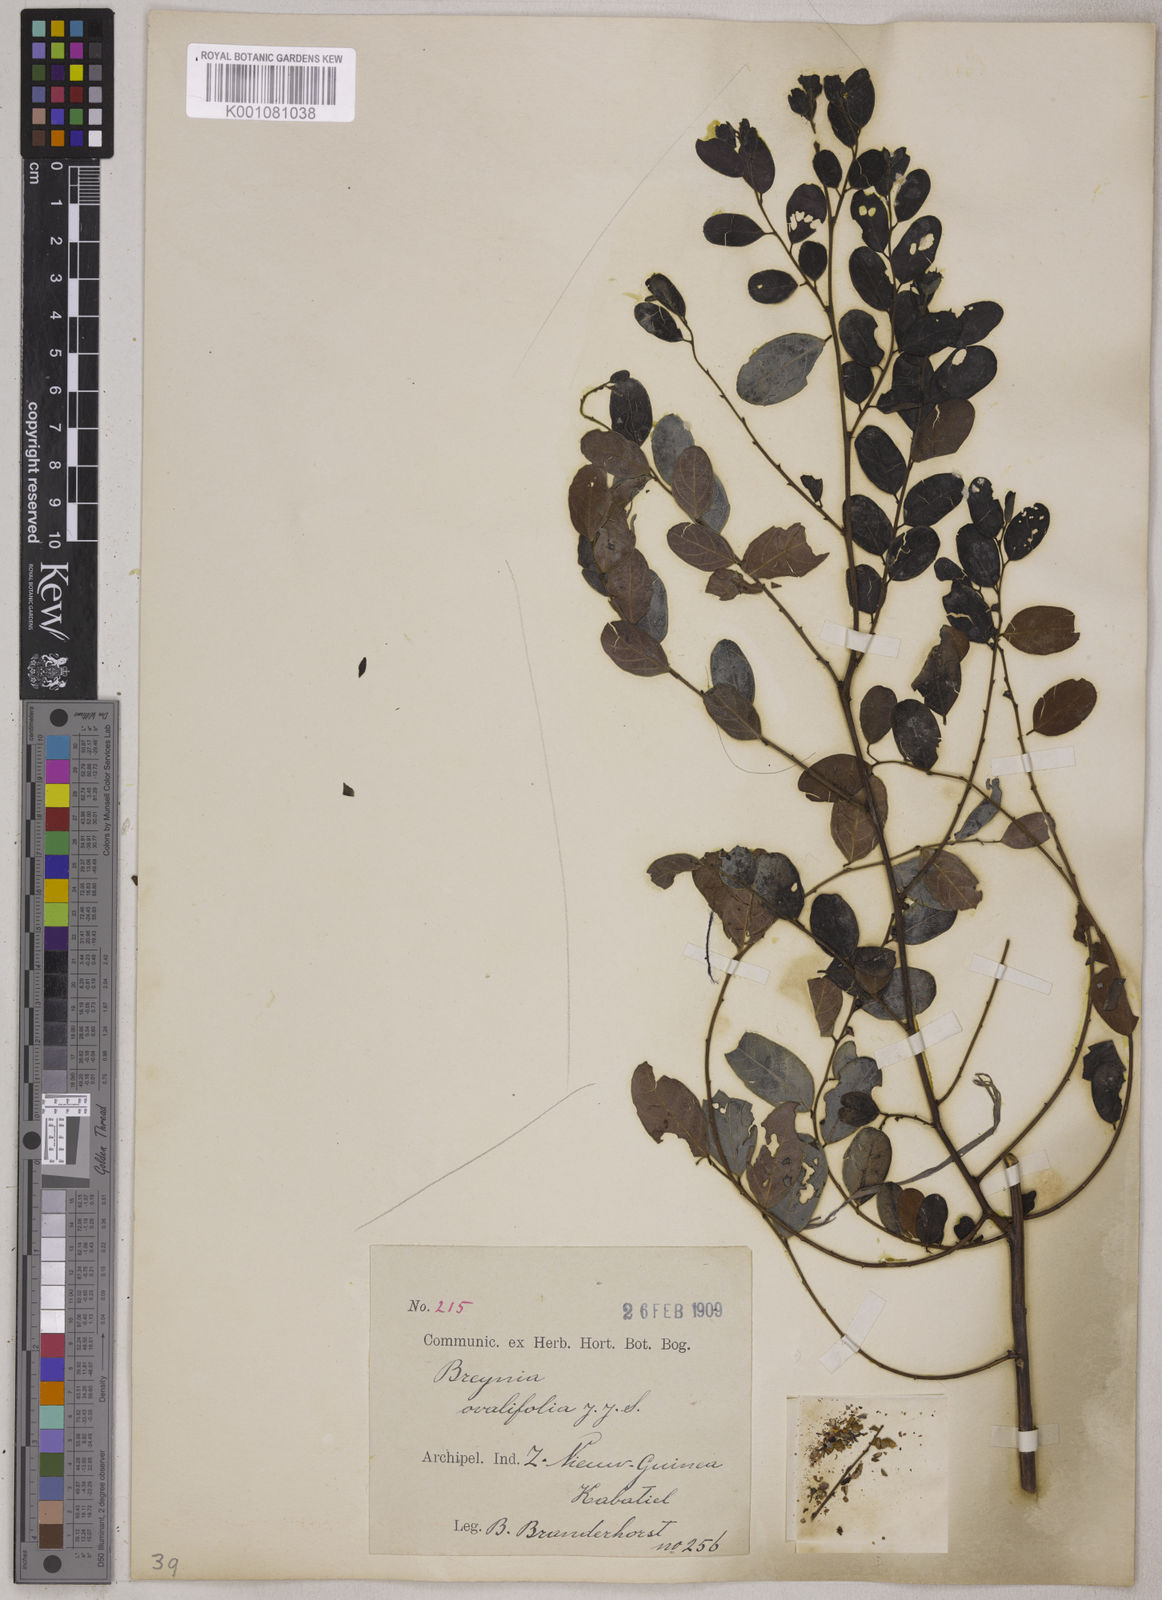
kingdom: Plantae
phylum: Tracheophyta
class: Magnoliopsida
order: Malpighiales
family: Phyllanthaceae
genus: Breynia
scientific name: Breynia vestita
